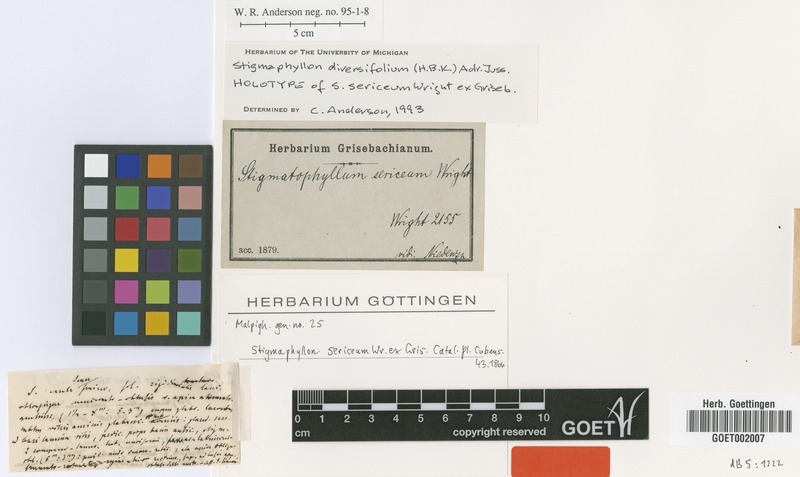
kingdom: Plantae
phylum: Tracheophyta
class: Magnoliopsida
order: Malpighiales
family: Malpighiaceae
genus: Stigmaphyllon
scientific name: Stigmaphyllon diversifolium
